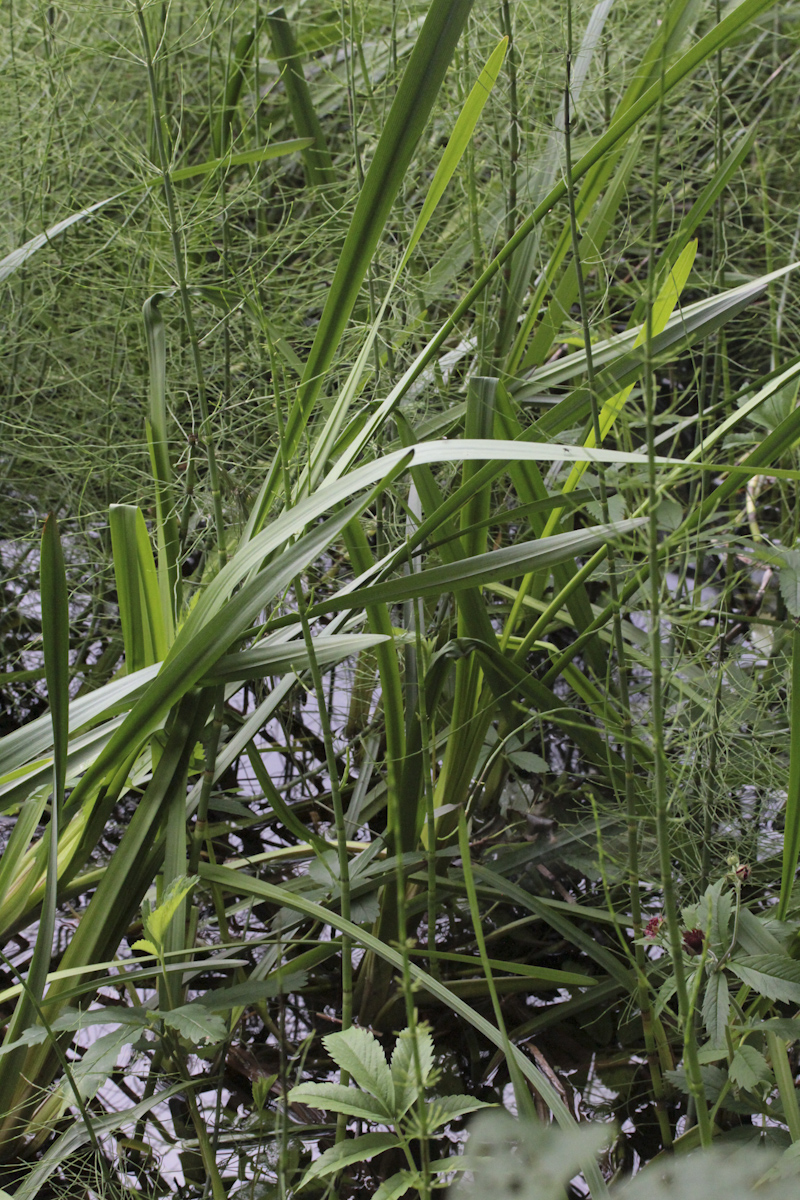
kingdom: Plantae
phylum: Tracheophyta
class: Liliopsida
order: Poales
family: Typhaceae
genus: Sparganium
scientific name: Sparganium erectum
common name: Branched bur-reed
